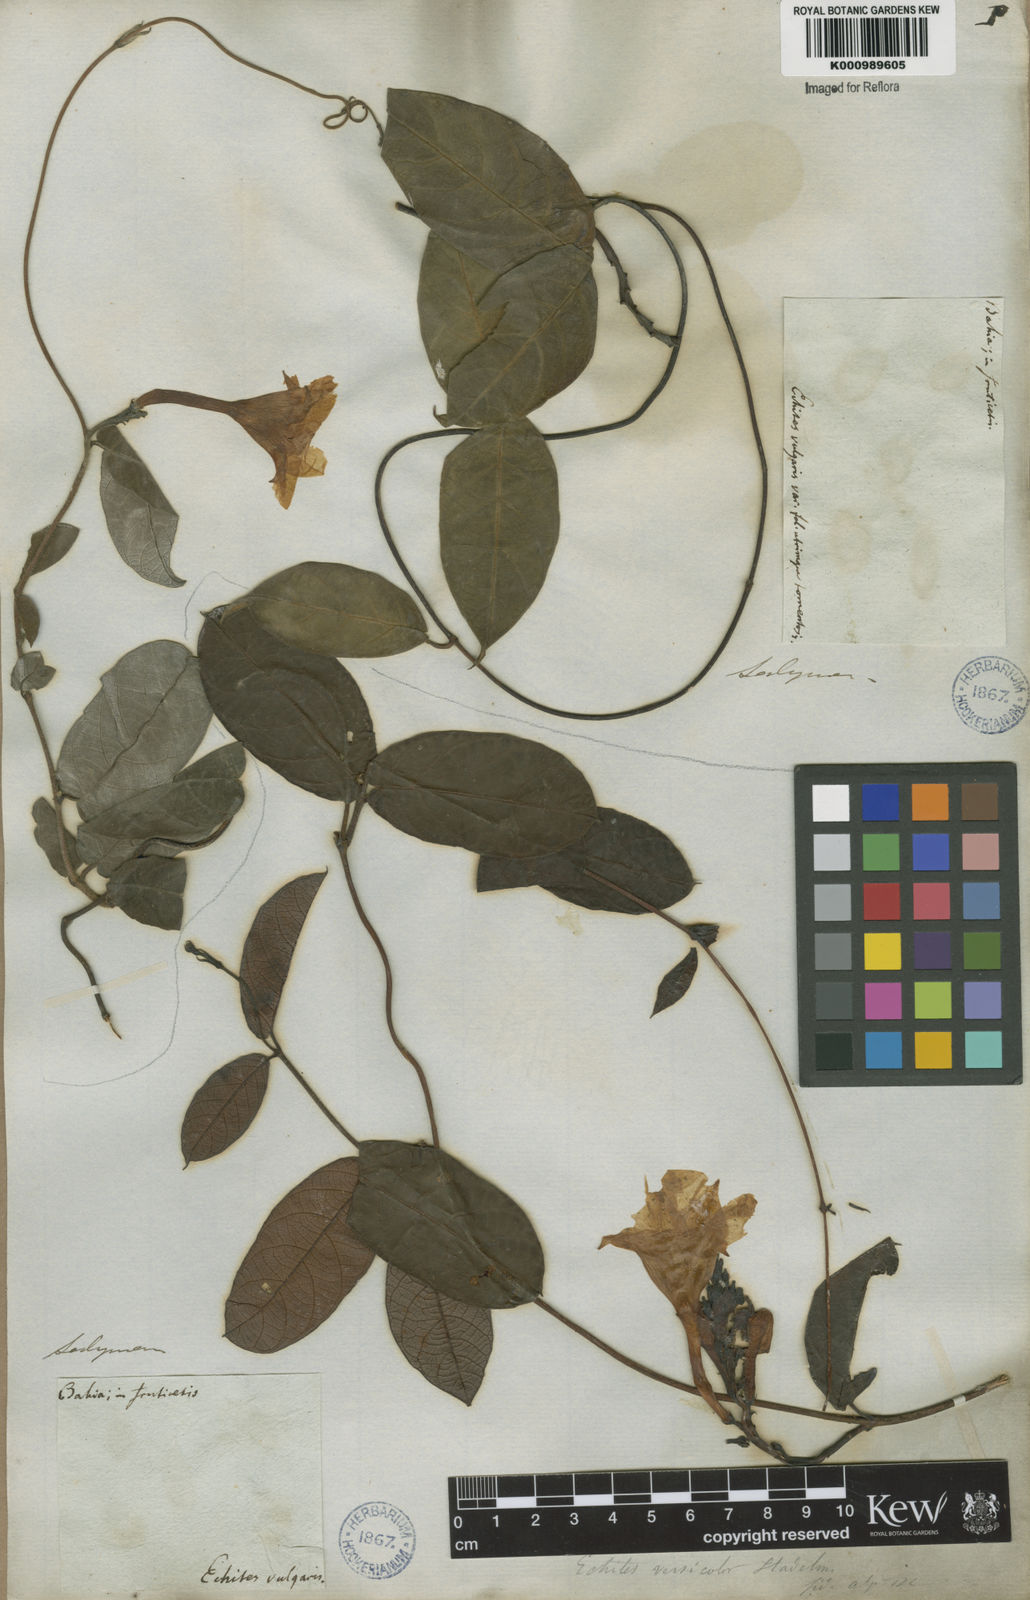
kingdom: Plantae
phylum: Tracheophyta
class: Magnoliopsida
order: Gentianales
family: Apocynaceae
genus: Mandevilla
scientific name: Mandevilla scabra
